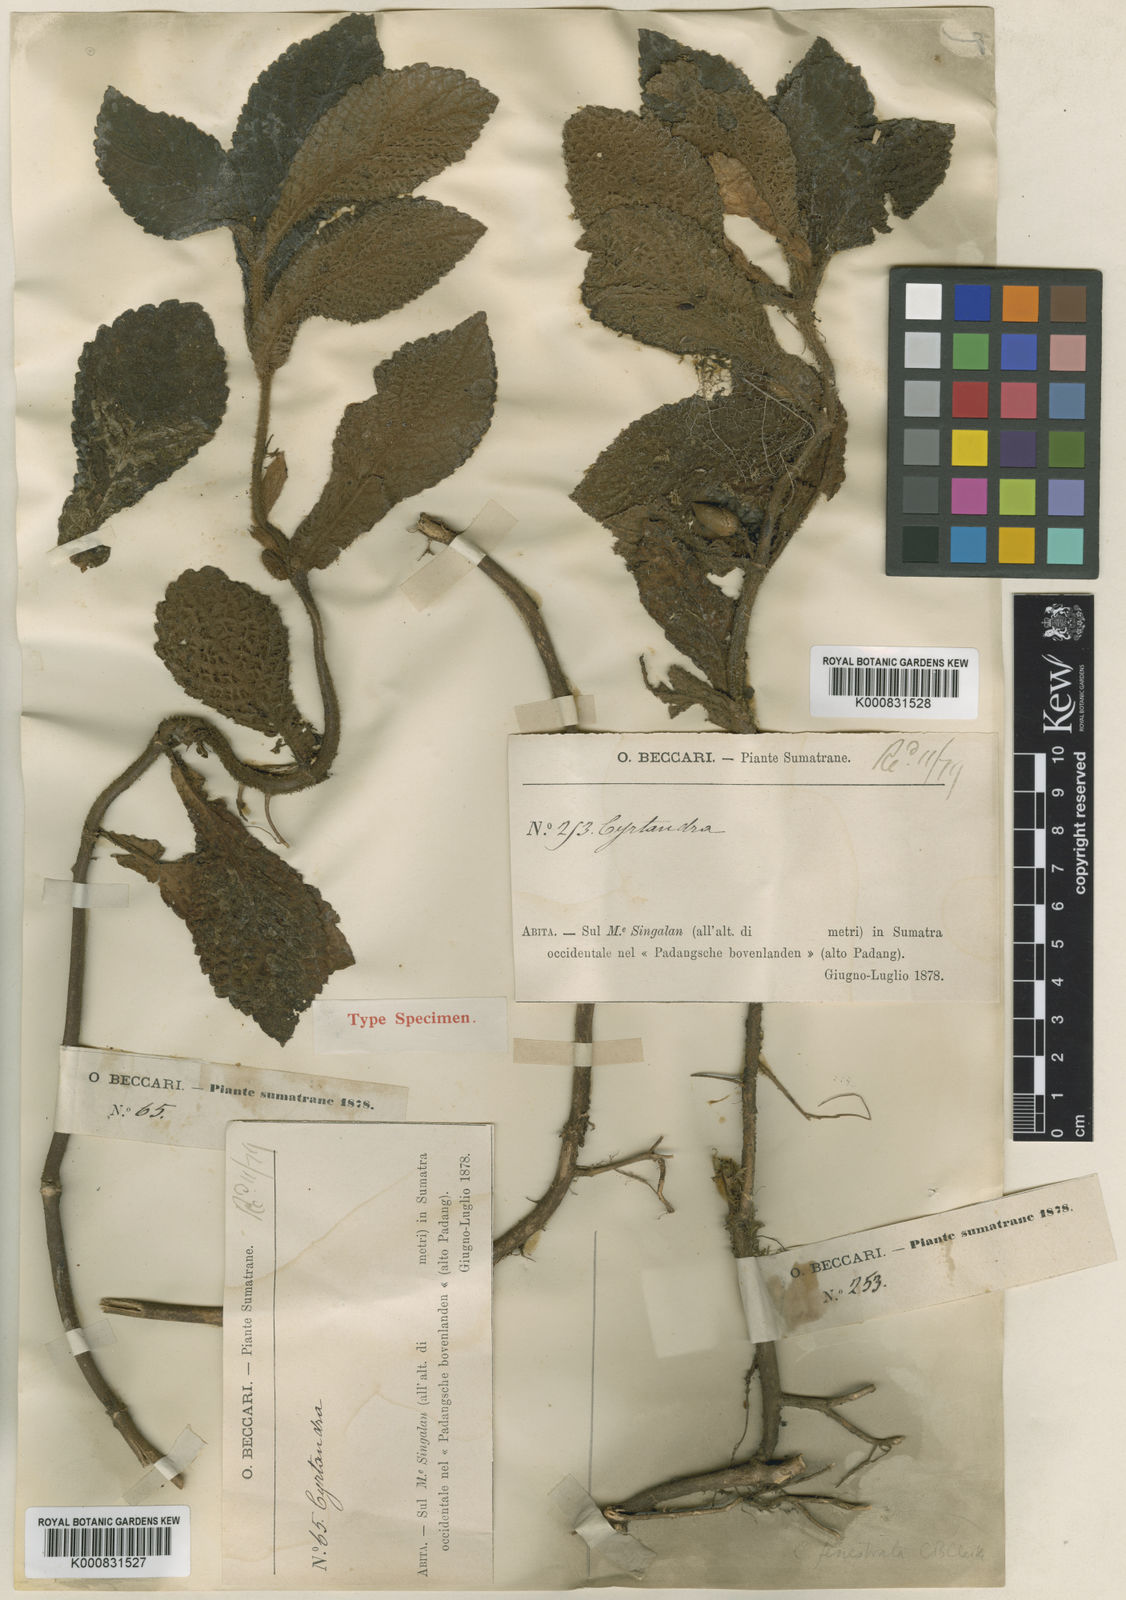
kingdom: Plantae
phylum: Tracheophyta
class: Magnoliopsida
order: Lamiales
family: Gesneriaceae
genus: Cyrtandra
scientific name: Cyrtandra fenestrata
